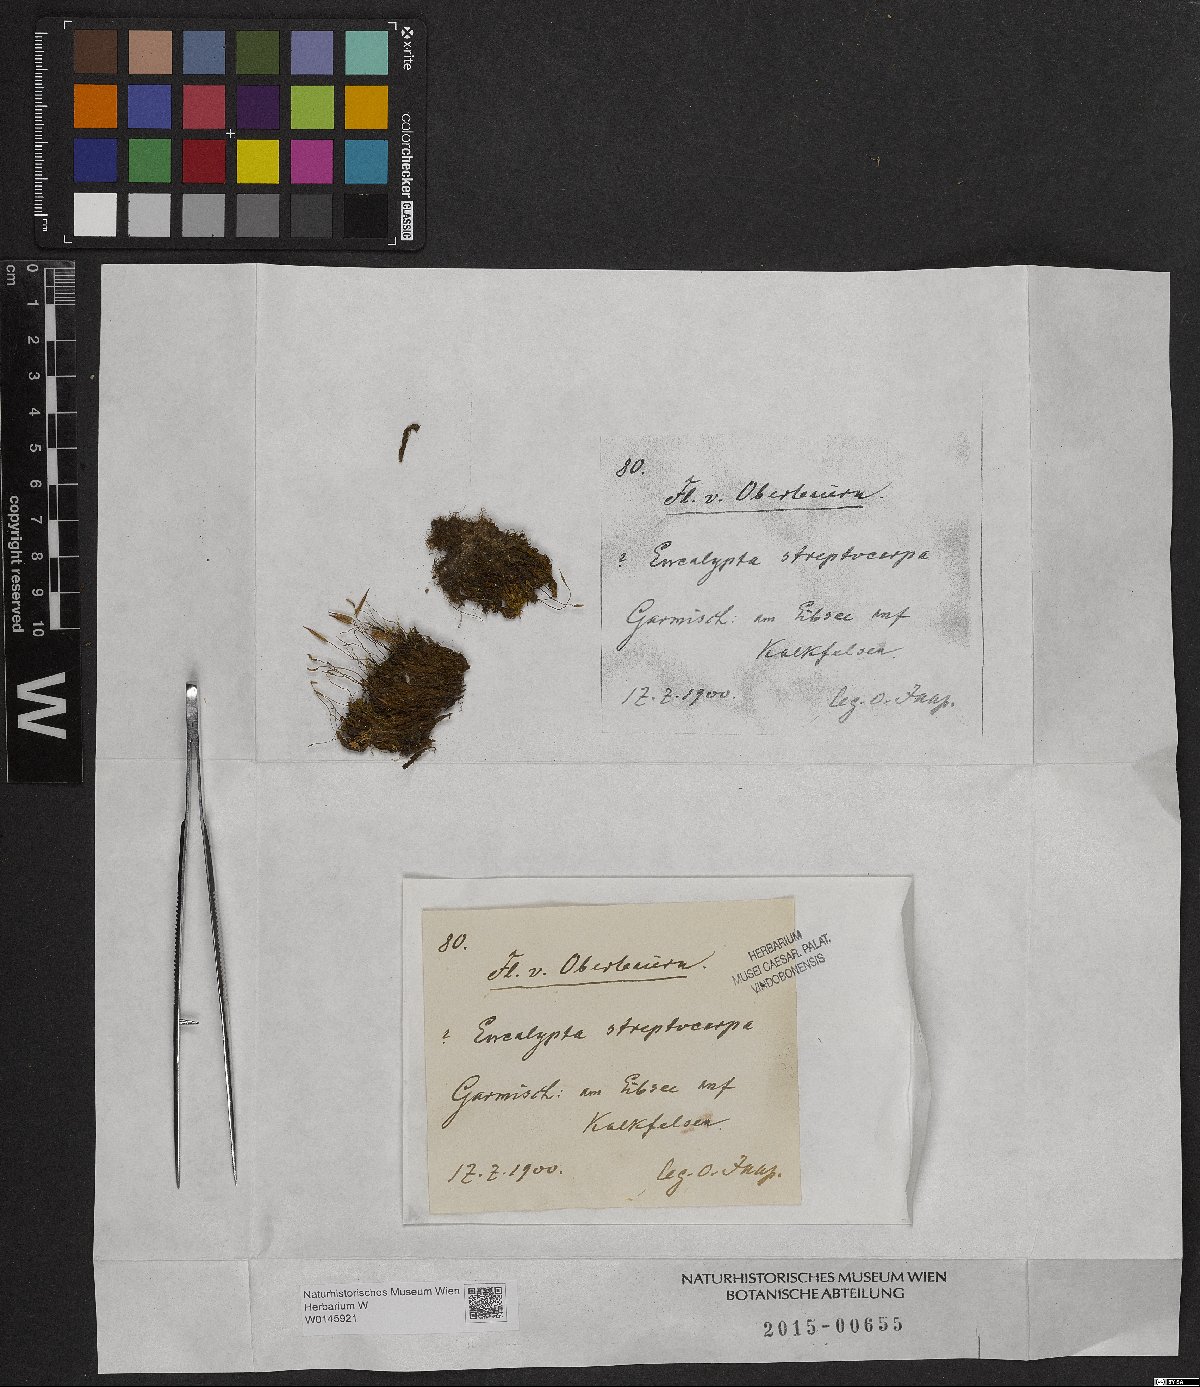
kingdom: Plantae
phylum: Bryophyta
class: Bryopsida
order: Encalyptales
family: Encalyptaceae
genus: Encalypta
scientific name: Encalypta streptocarpa
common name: Spiral extinguisher-moss
